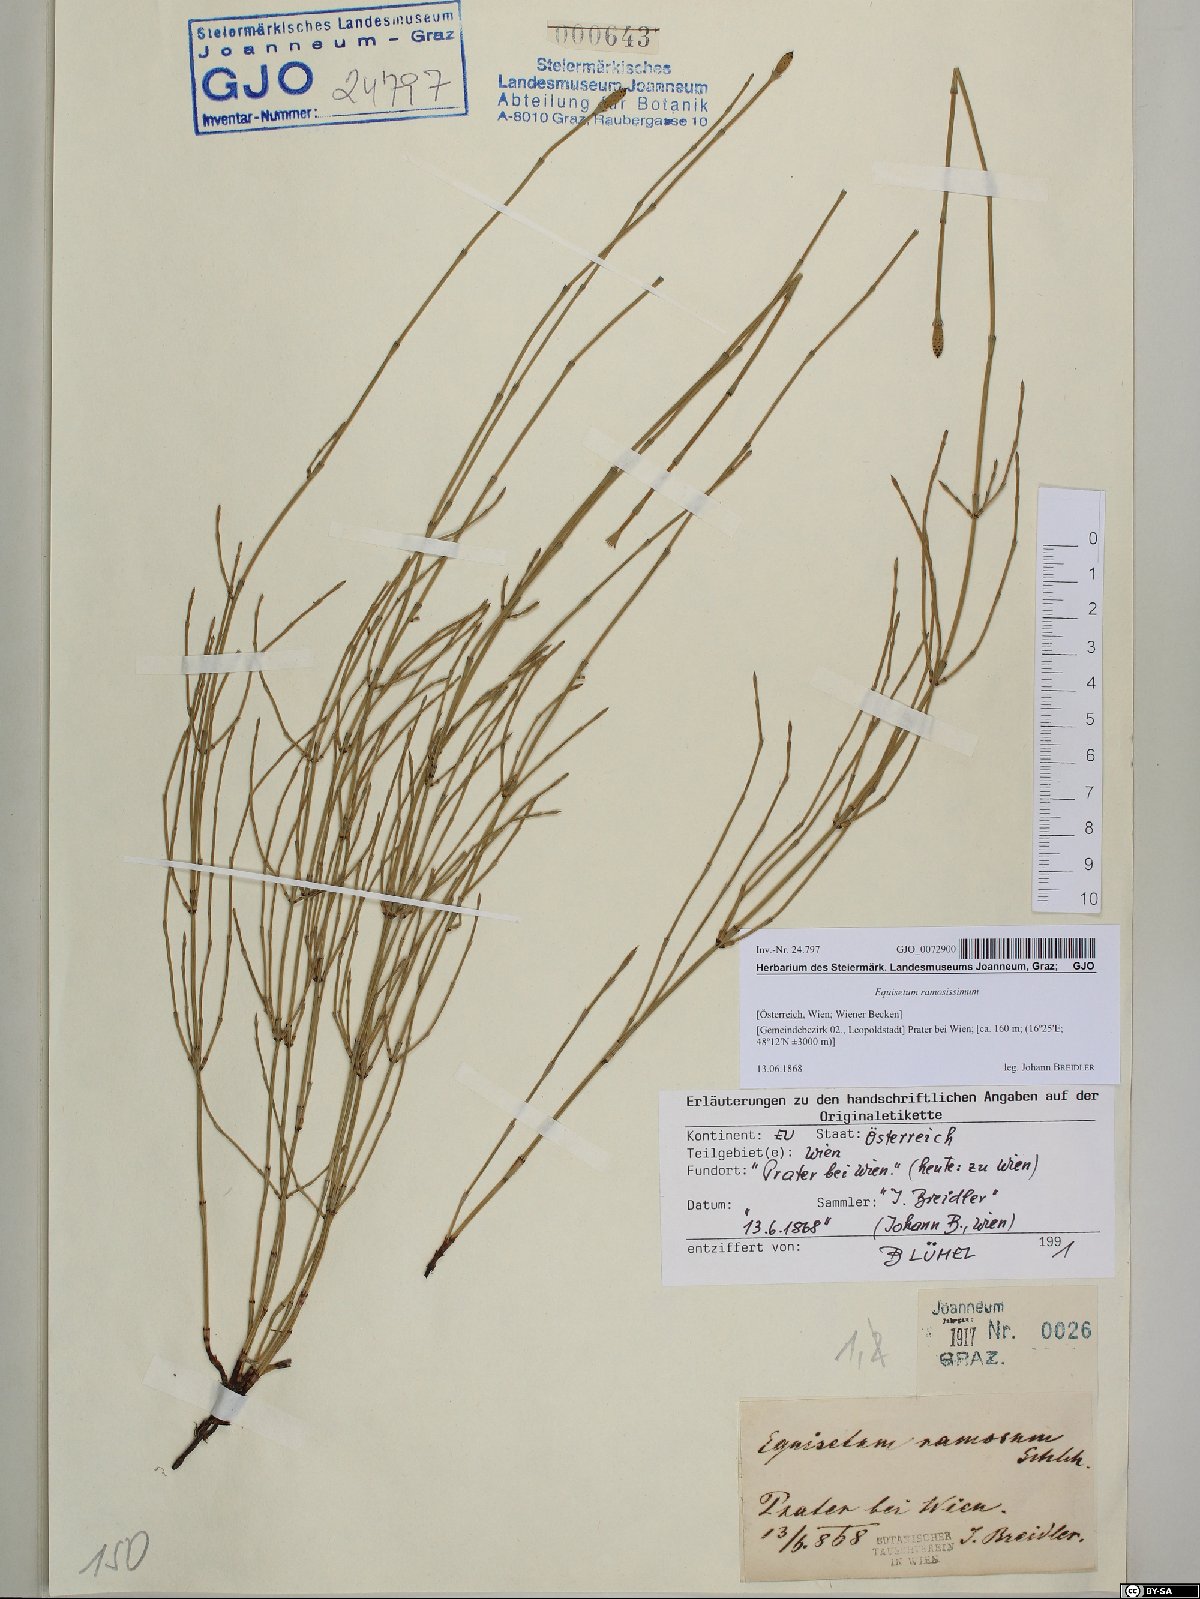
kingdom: Plantae
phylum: Tracheophyta
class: Polypodiopsida
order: Equisetales
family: Equisetaceae
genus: Equisetum
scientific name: Equisetum ramosissimum
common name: Branched horsetail
